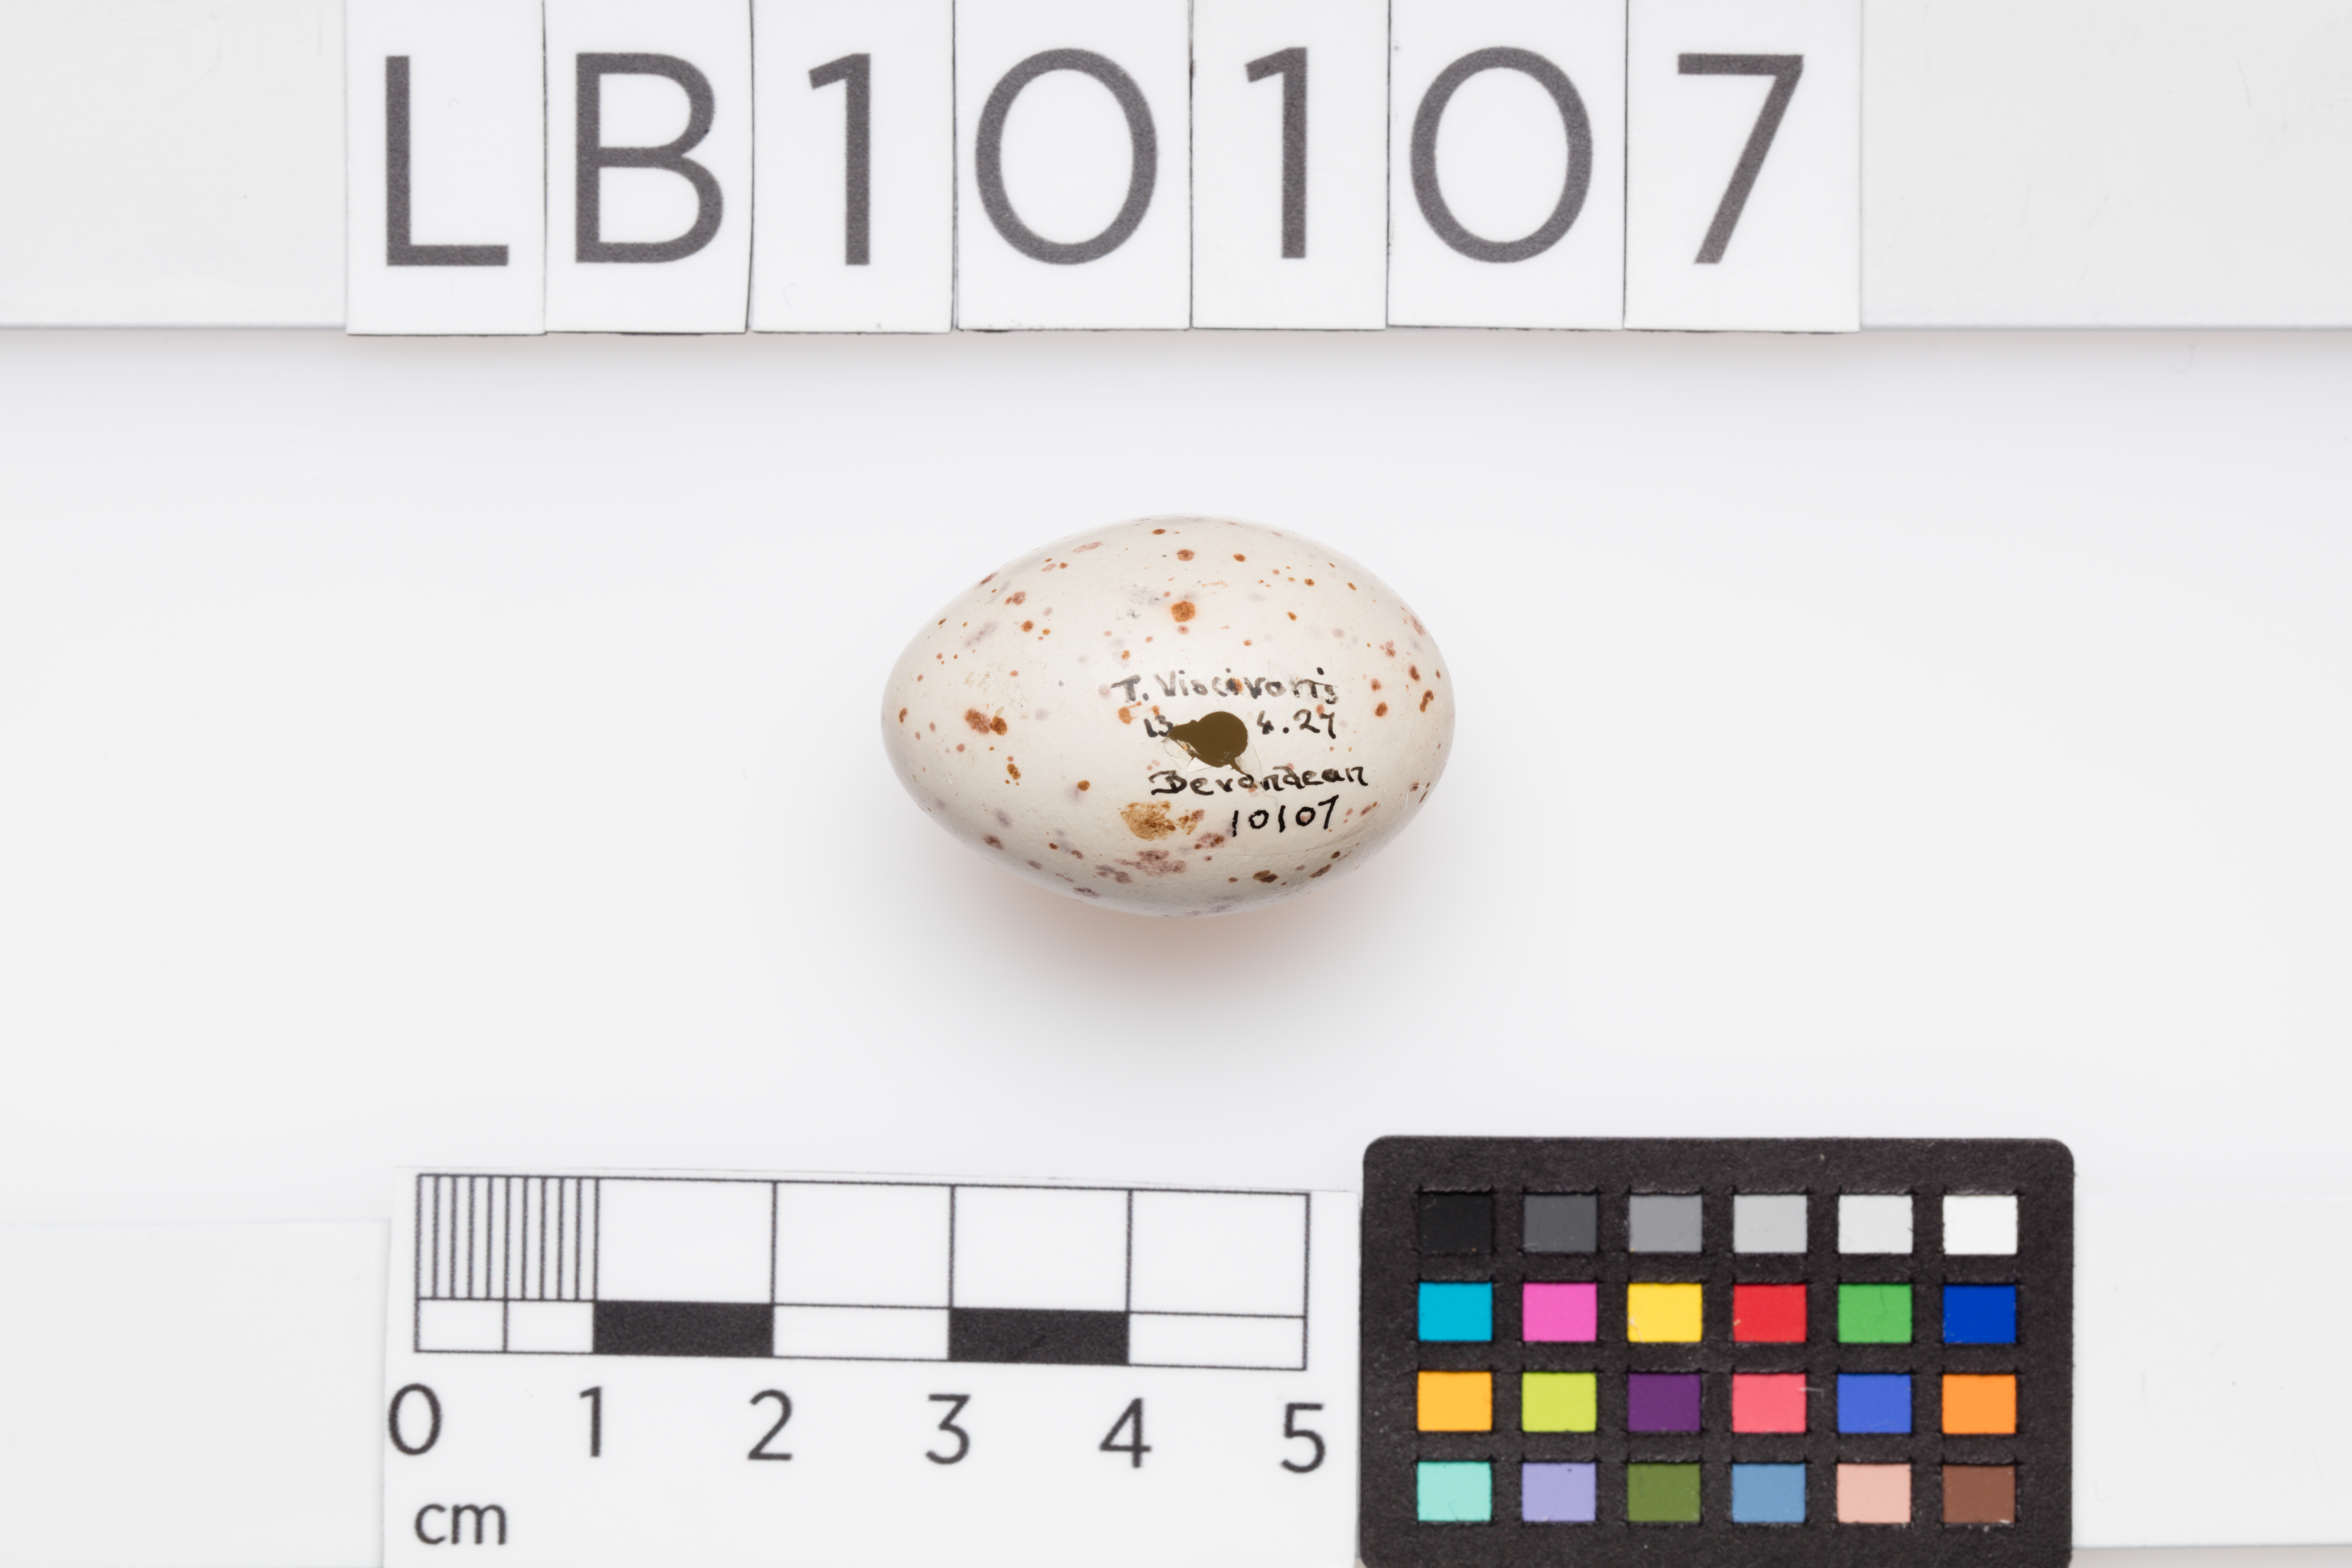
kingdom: Animalia
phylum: Chordata
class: Aves
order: Passeriformes
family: Turdidae
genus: Turdus
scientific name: Turdus viscivorus
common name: Mistle thrush
